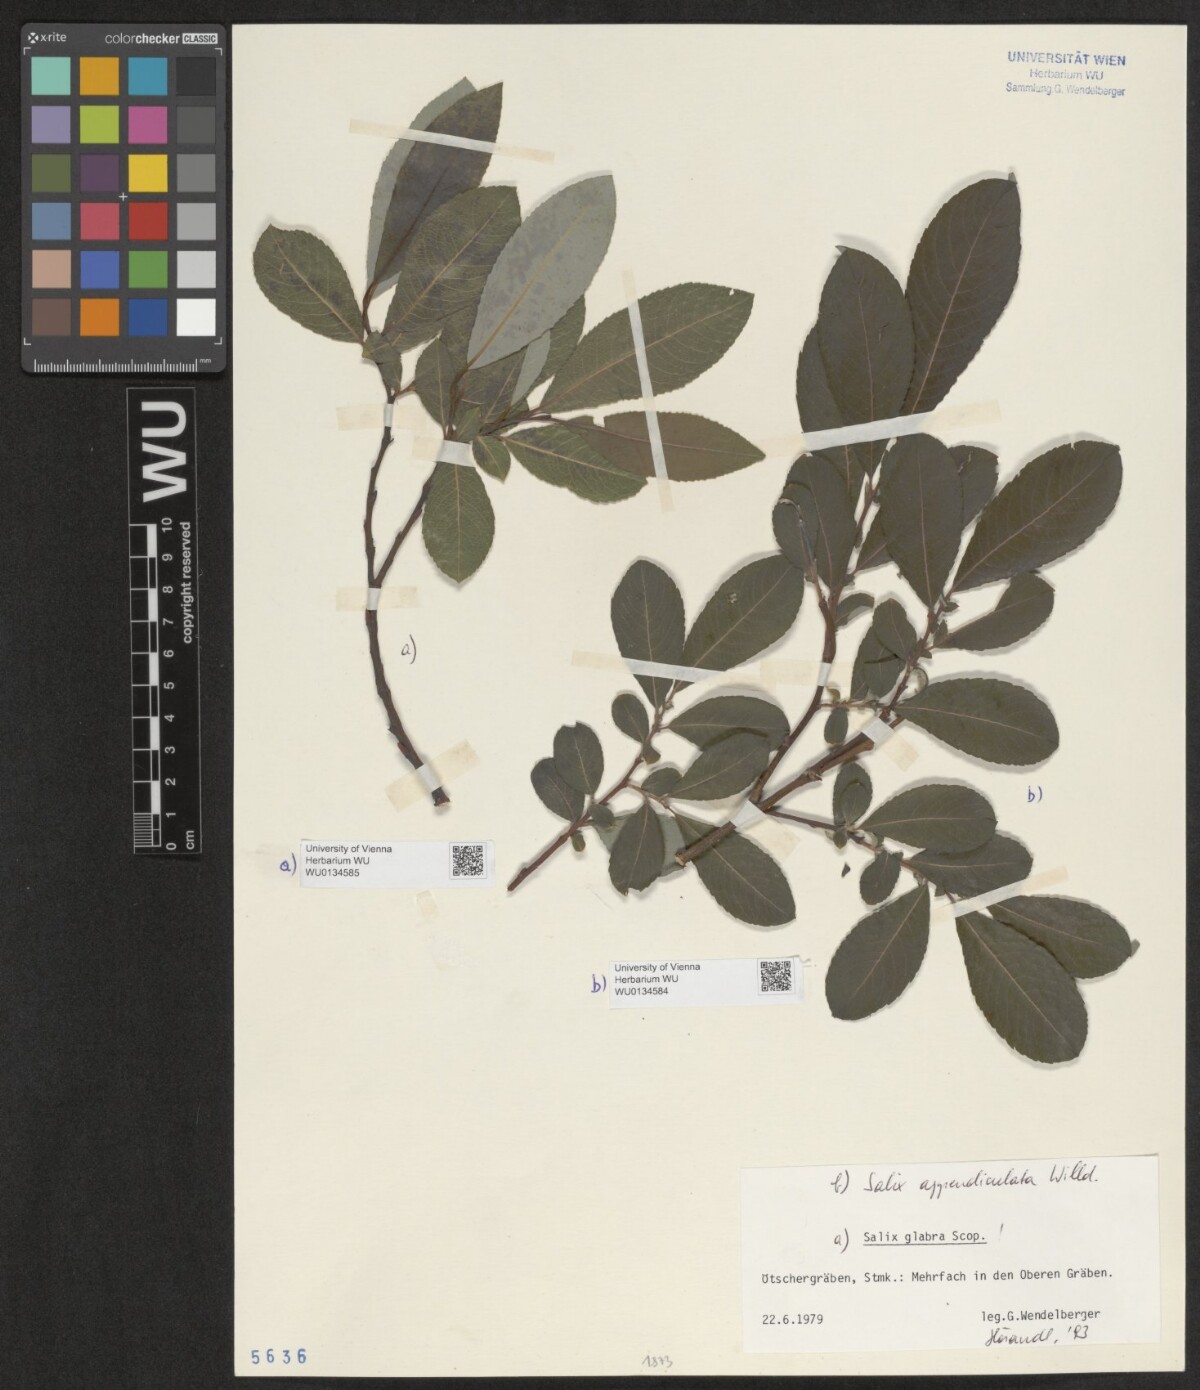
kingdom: Plantae
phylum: Tracheophyta
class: Magnoliopsida
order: Malpighiales
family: Salicaceae
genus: Salix
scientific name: Salix appendiculata
